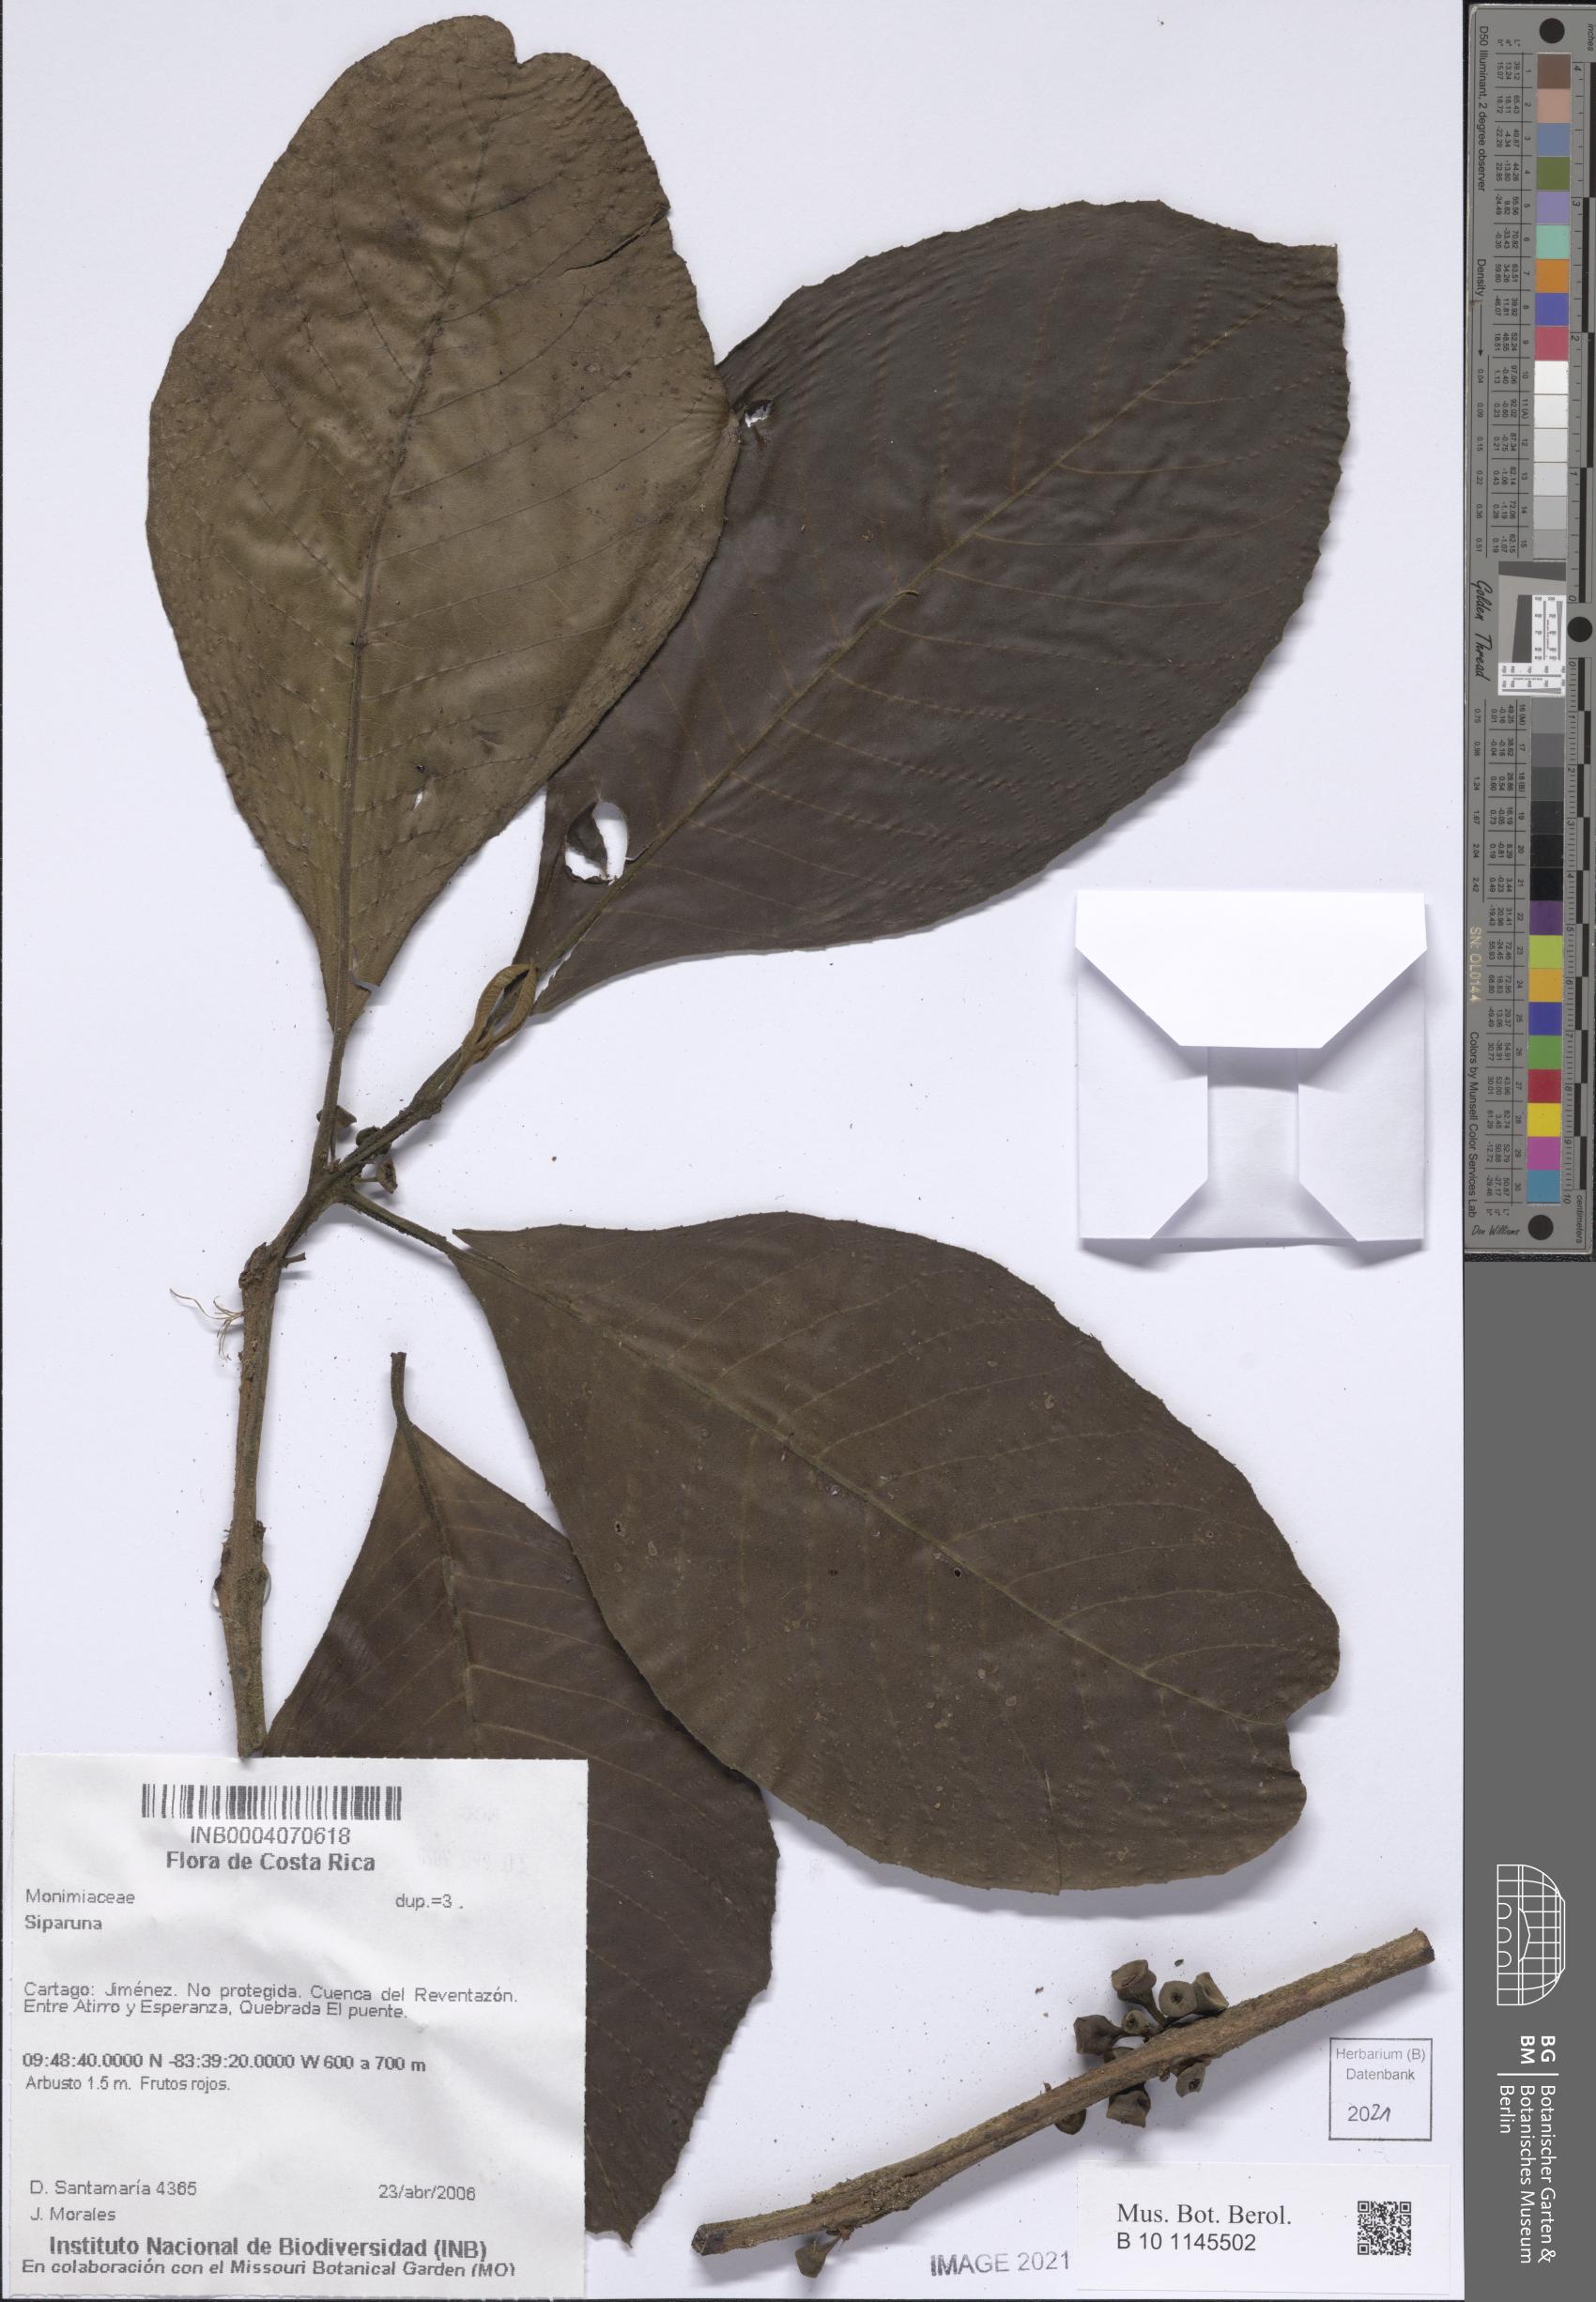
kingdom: Plantae
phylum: Tracheophyta
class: Magnoliopsida
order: Laurales
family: Siparunaceae
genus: Siparuna
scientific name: Siparuna
